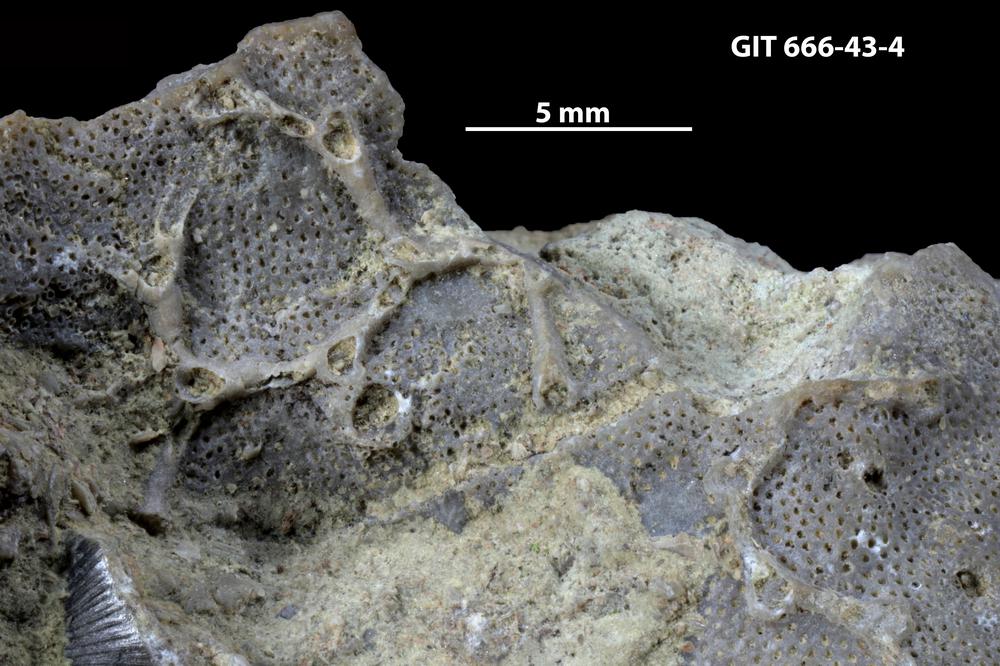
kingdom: Animalia
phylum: Cnidaria
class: Anthozoa
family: Auloporidae
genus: Aulopora
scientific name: Aulopora
